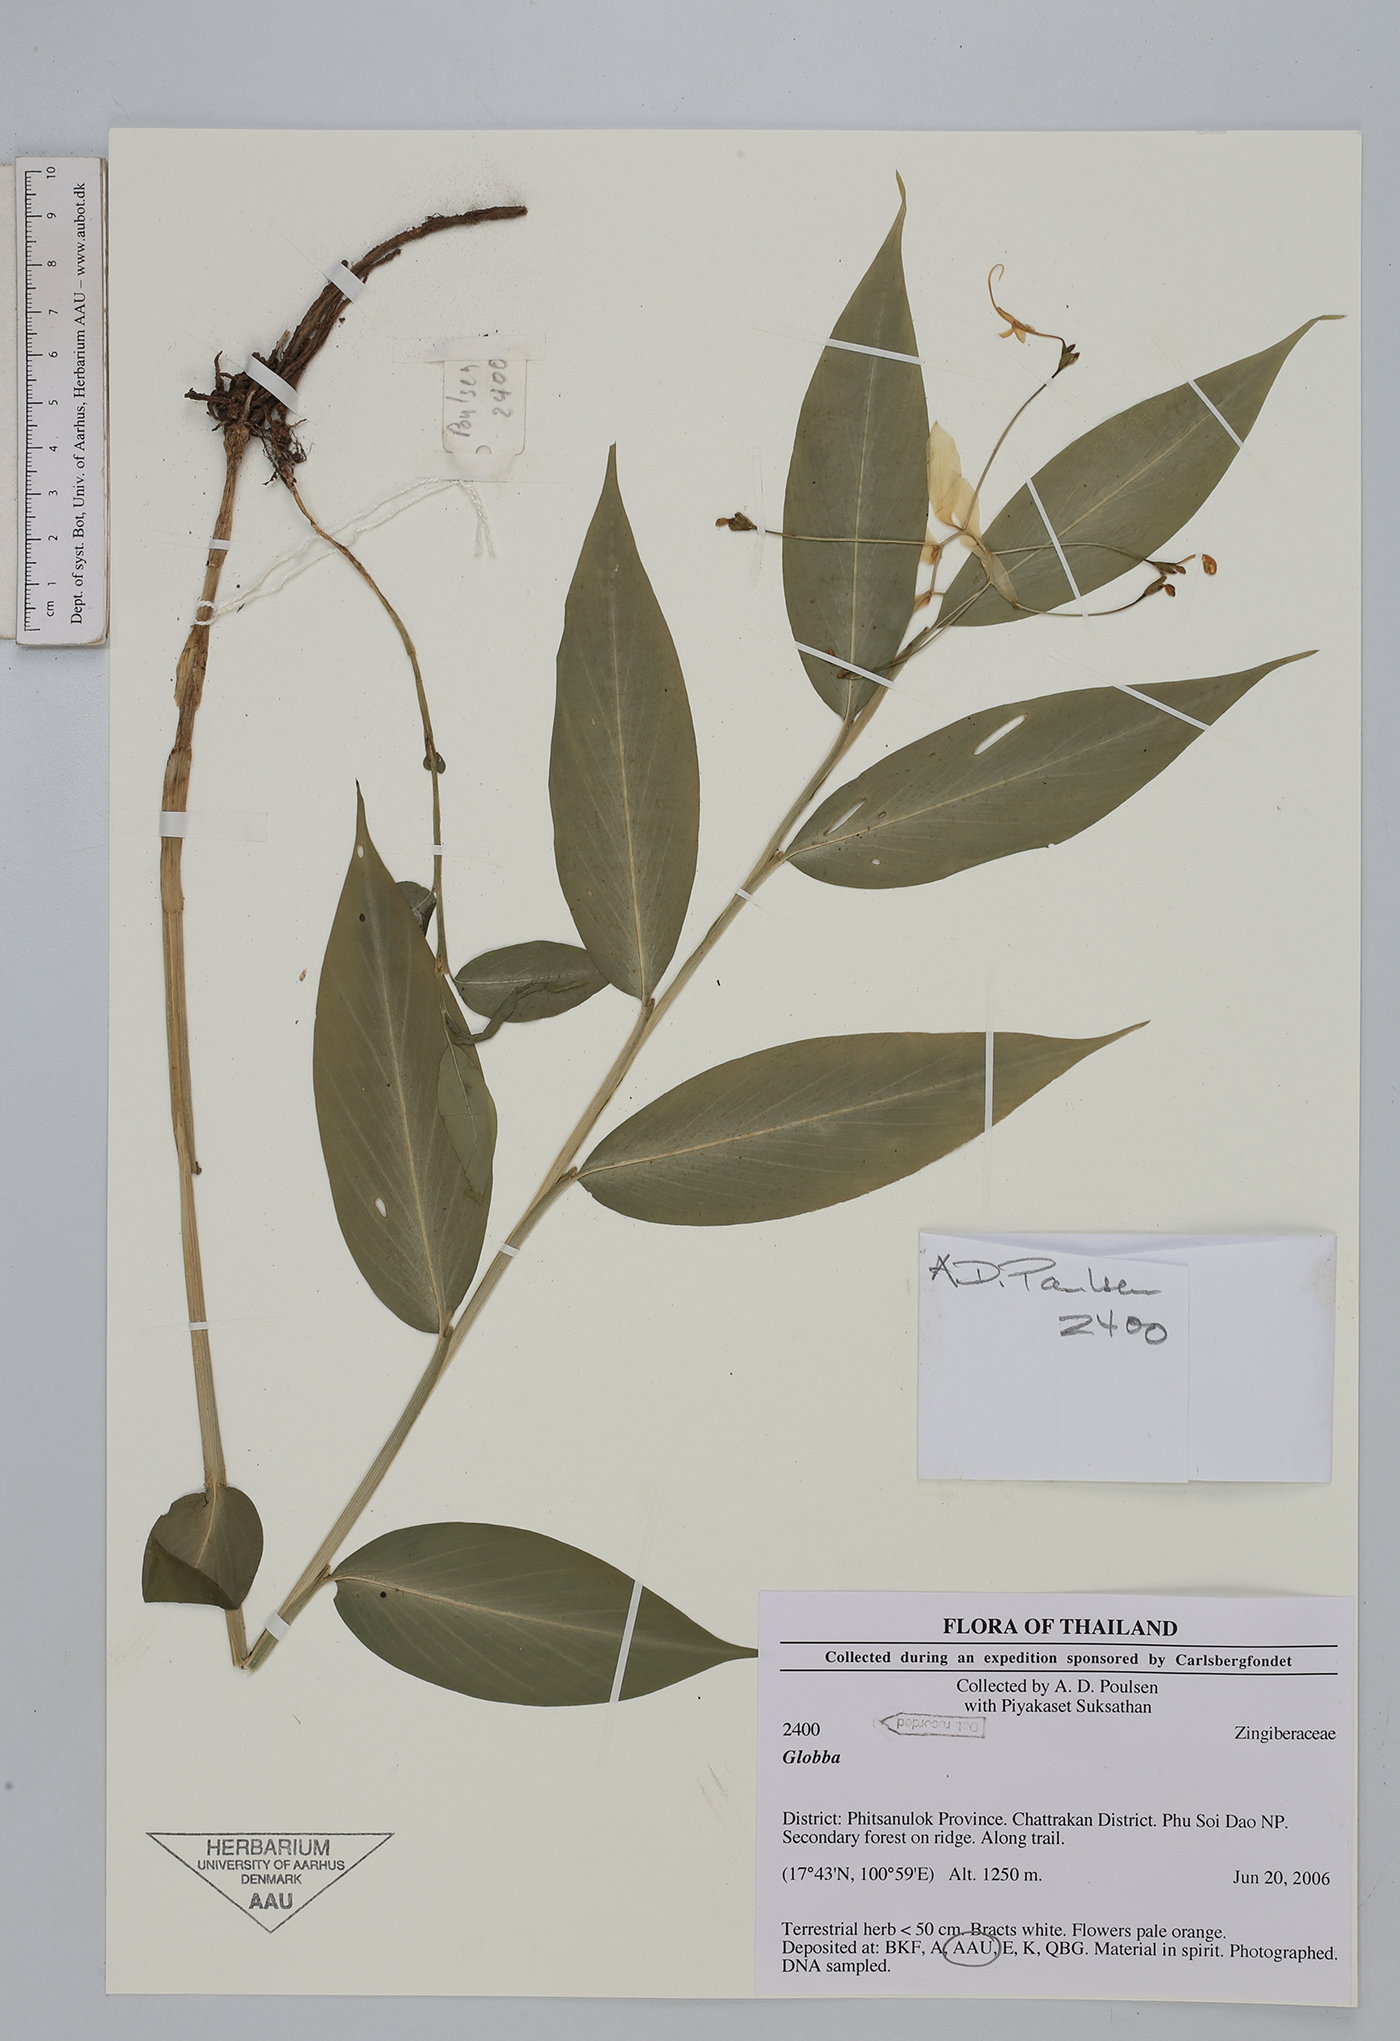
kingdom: Plantae
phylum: Tracheophyta
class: Liliopsida
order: Zingiberales
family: Zingiberaceae
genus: Globba
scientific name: Globba
